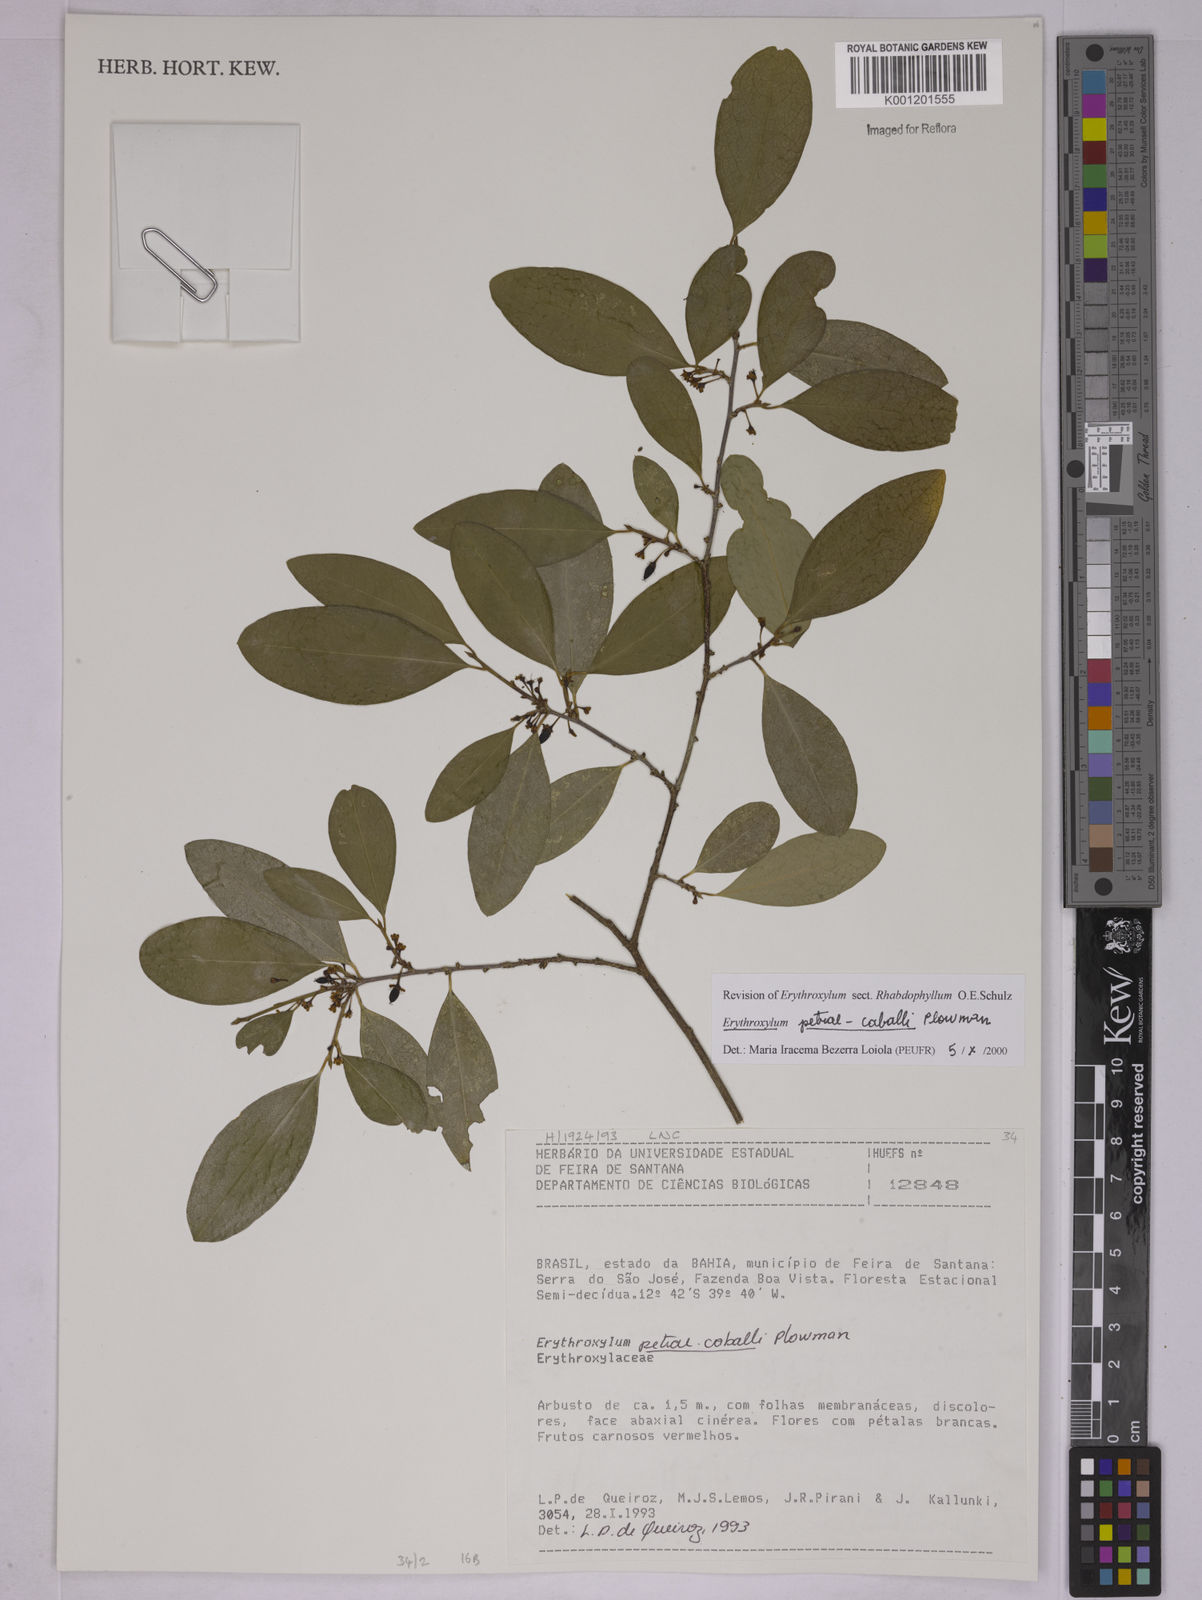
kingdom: Plantae
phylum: Tracheophyta
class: Magnoliopsida
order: Malpighiales
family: Erythroxylaceae
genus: Erythroxylum
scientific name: Erythroxylum petrae-caballi
